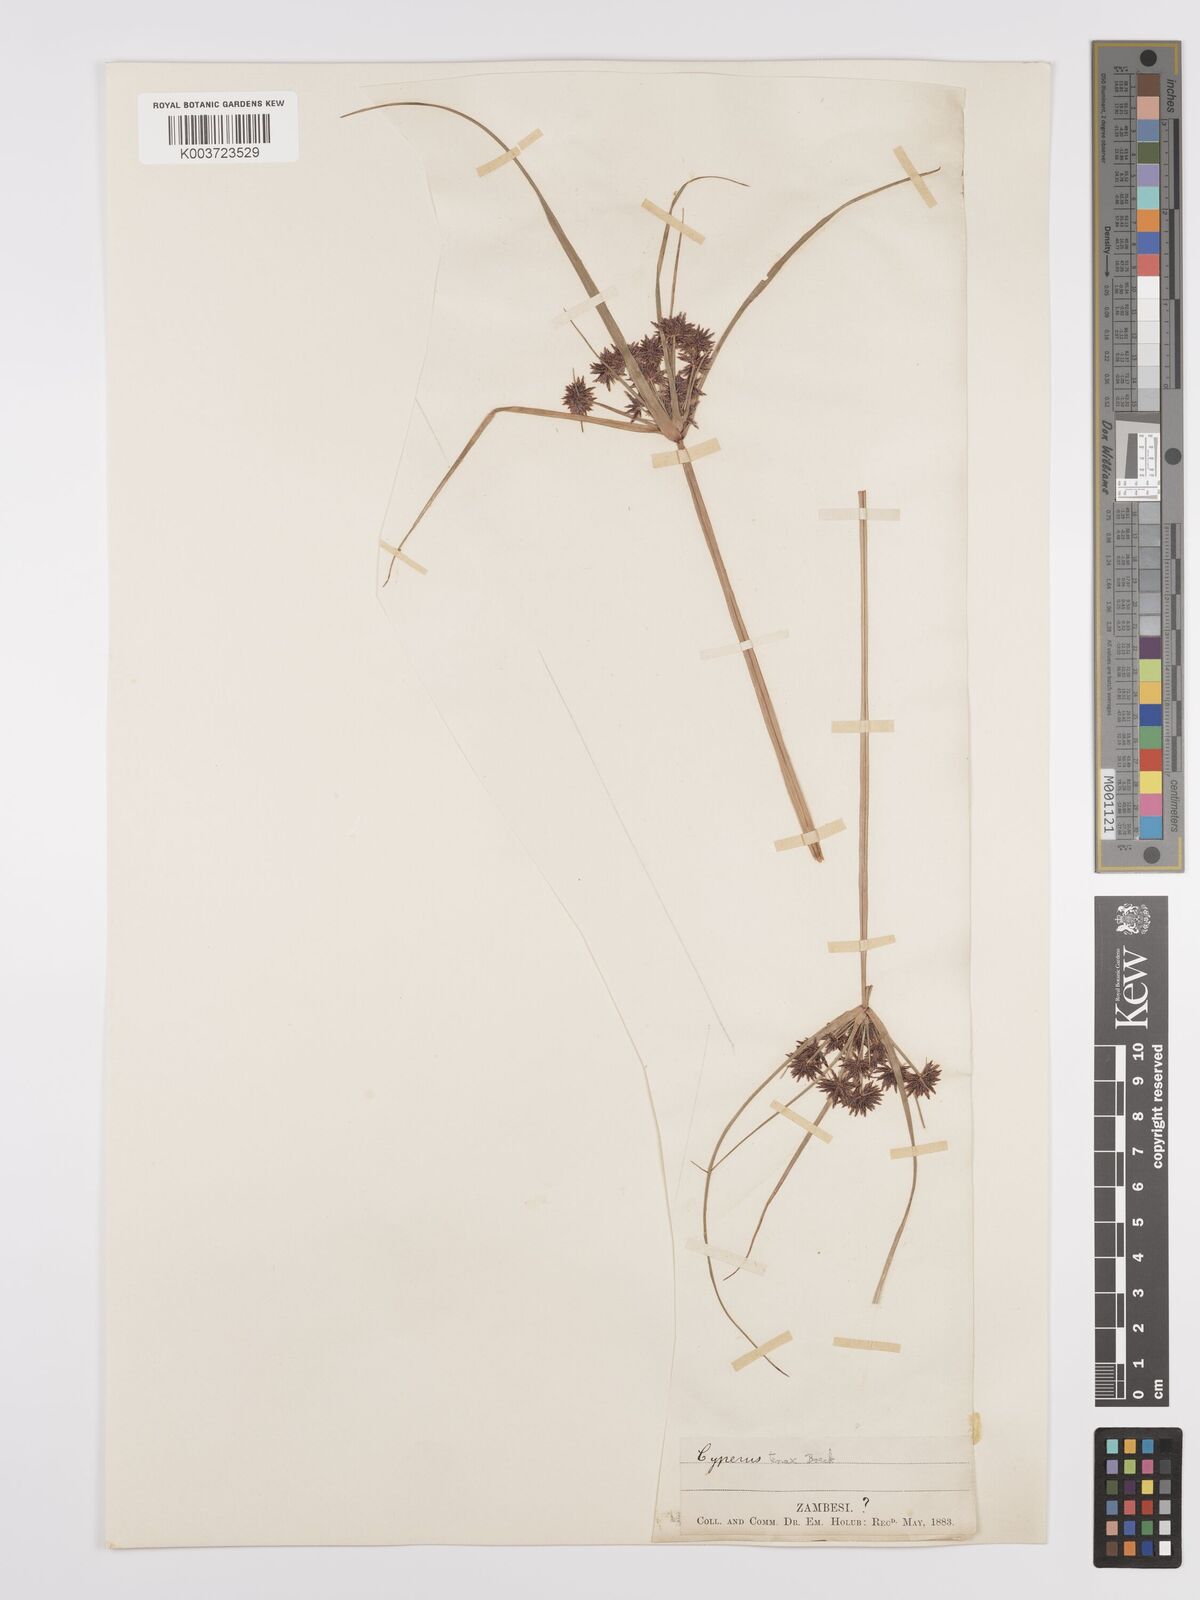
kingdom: Plantae
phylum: Tracheophyta
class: Liliopsida
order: Poales
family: Cyperaceae
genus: Cyperus
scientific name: Cyperus tenax
